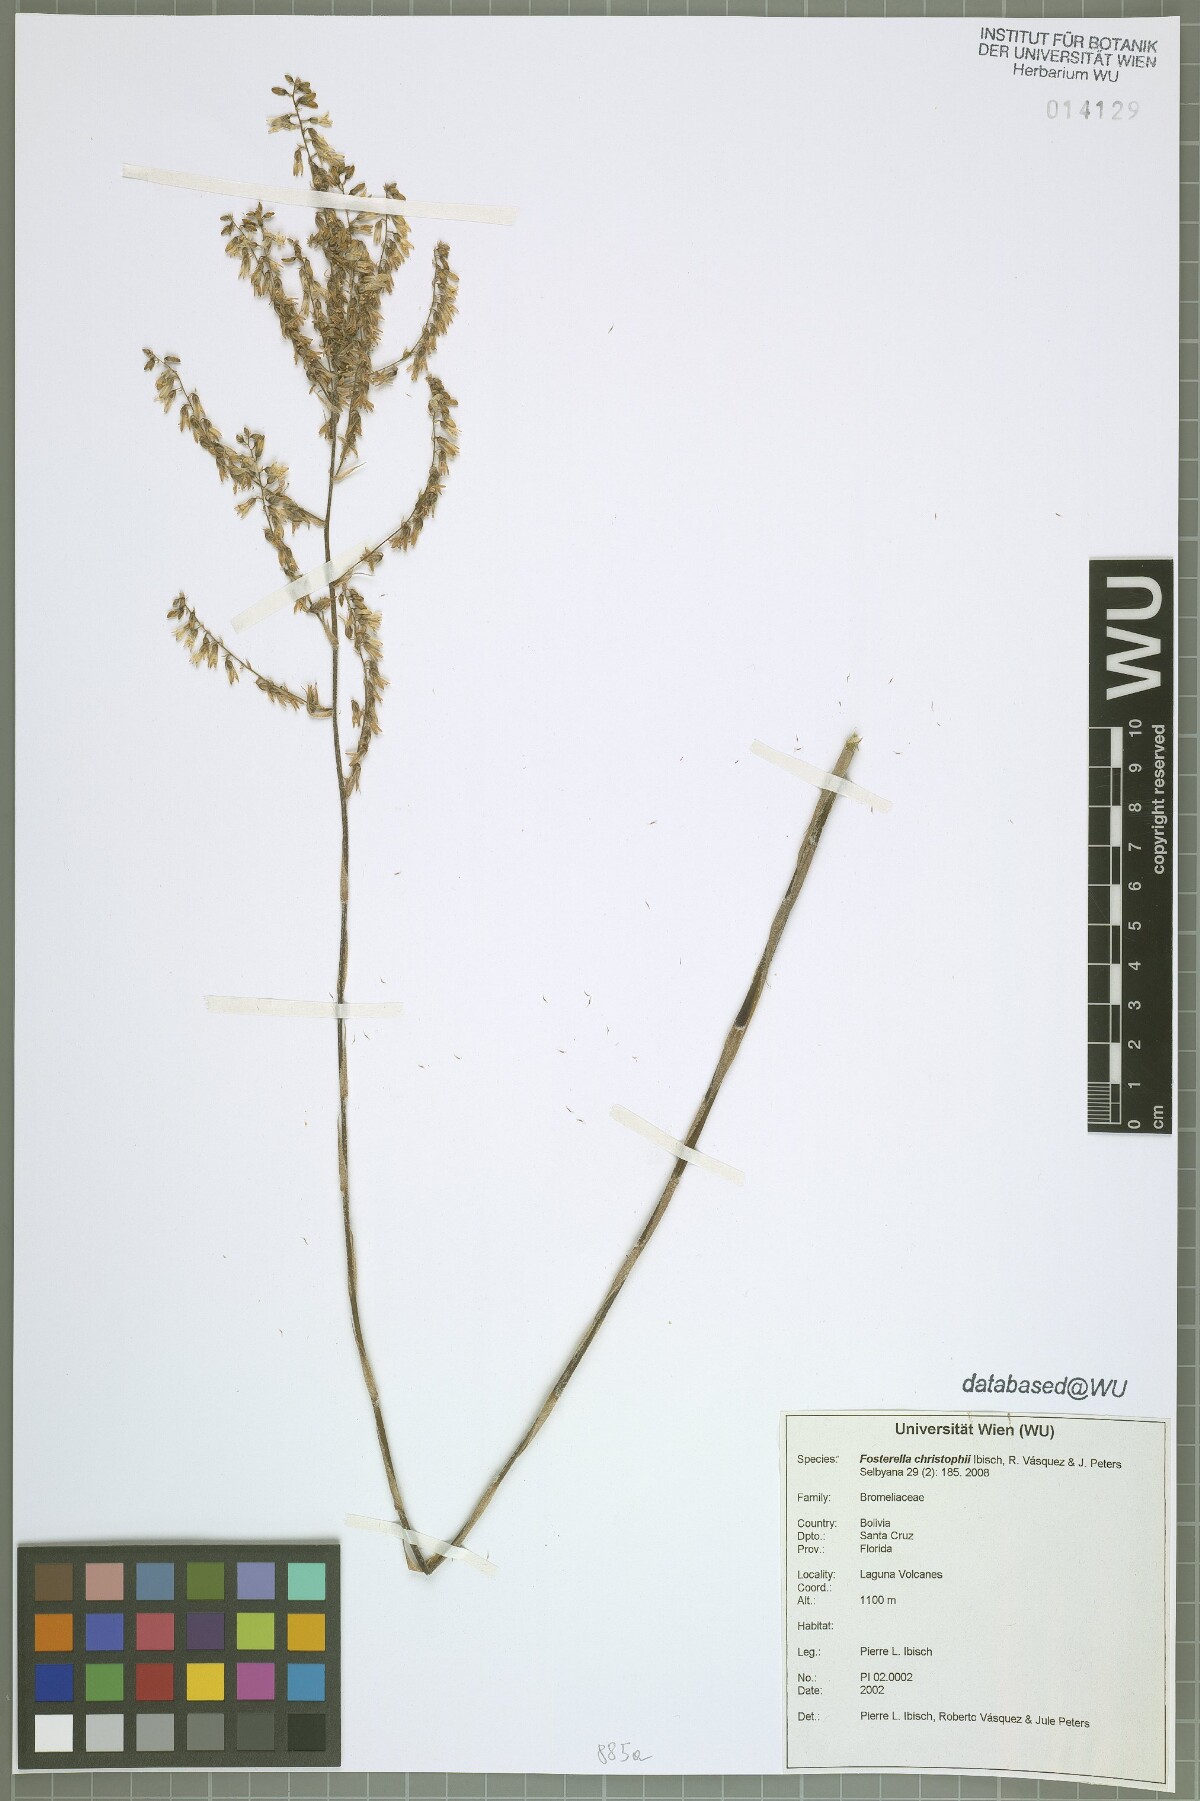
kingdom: Plantae
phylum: Tracheophyta
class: Liliopsida
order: Poales
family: Bromeliaceae
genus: Fosterella
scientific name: Fosterella christophii
